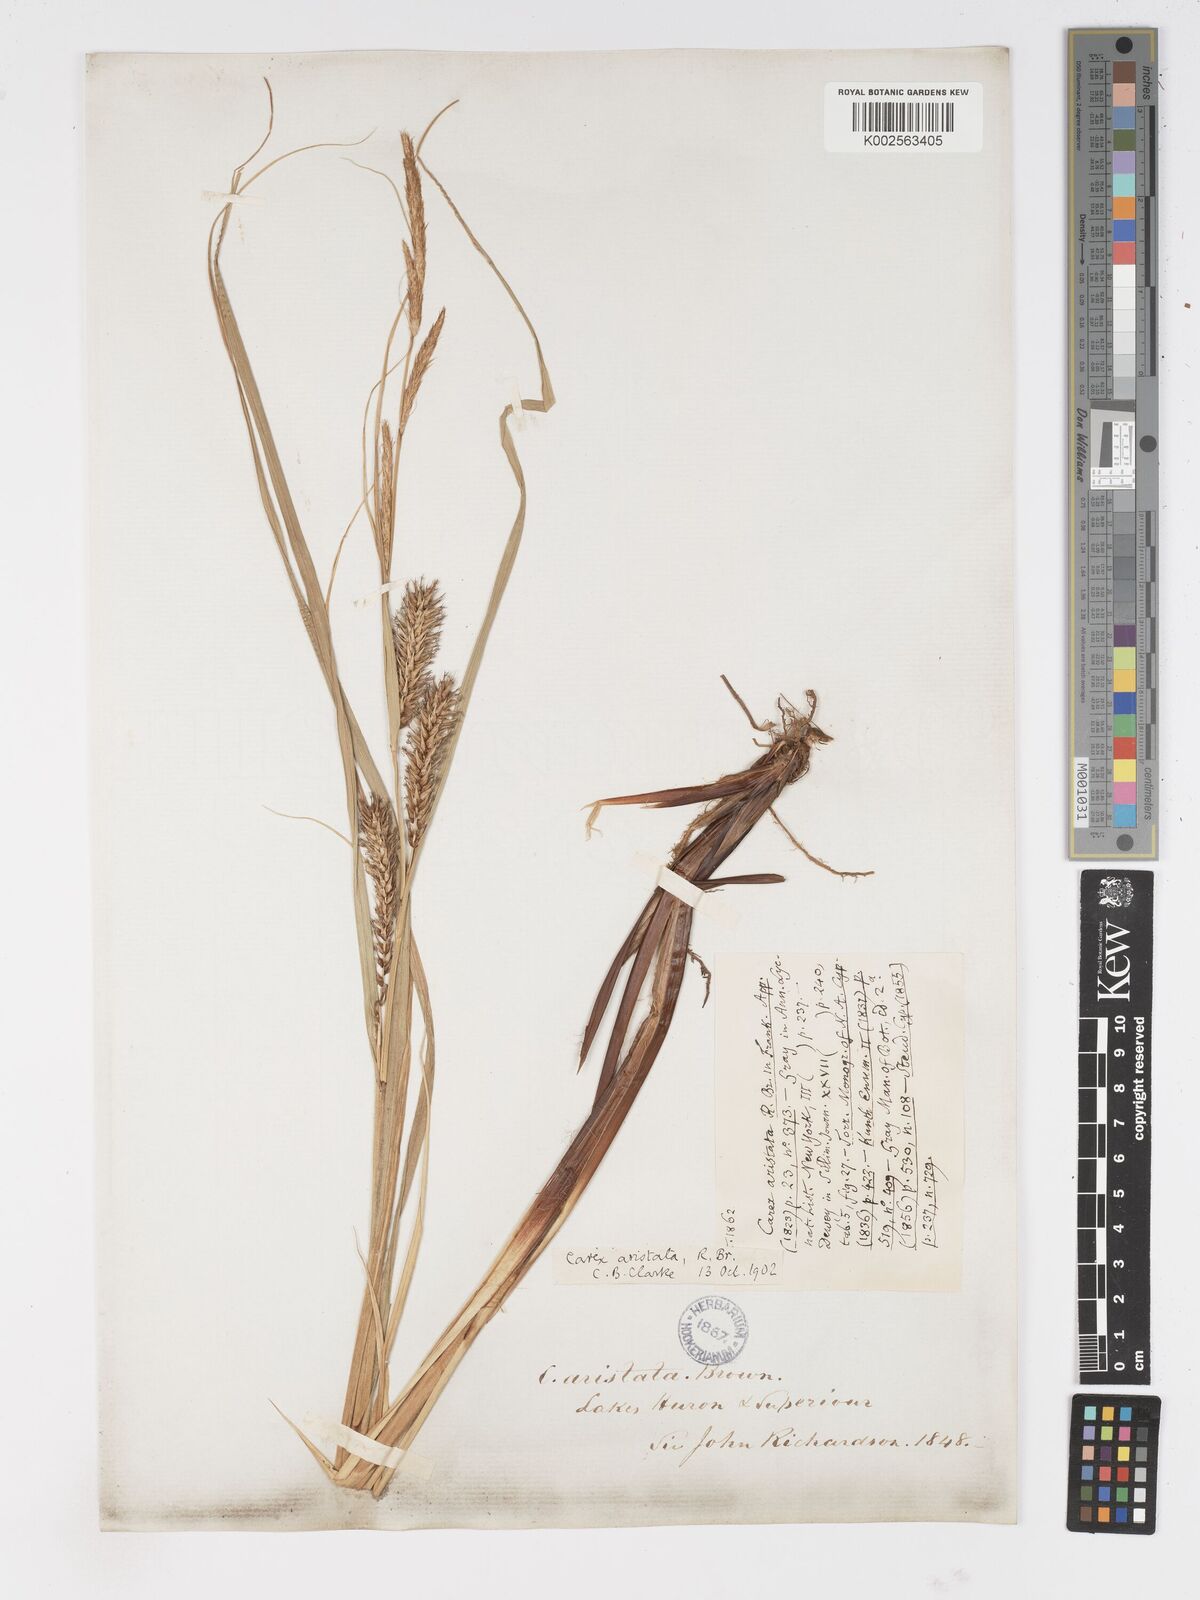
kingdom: Plantae
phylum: Tracheophyta
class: Liliopsida
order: Poales
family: Cyperaceae
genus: Carex
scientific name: Carex atherodes
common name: Wheat sedge
